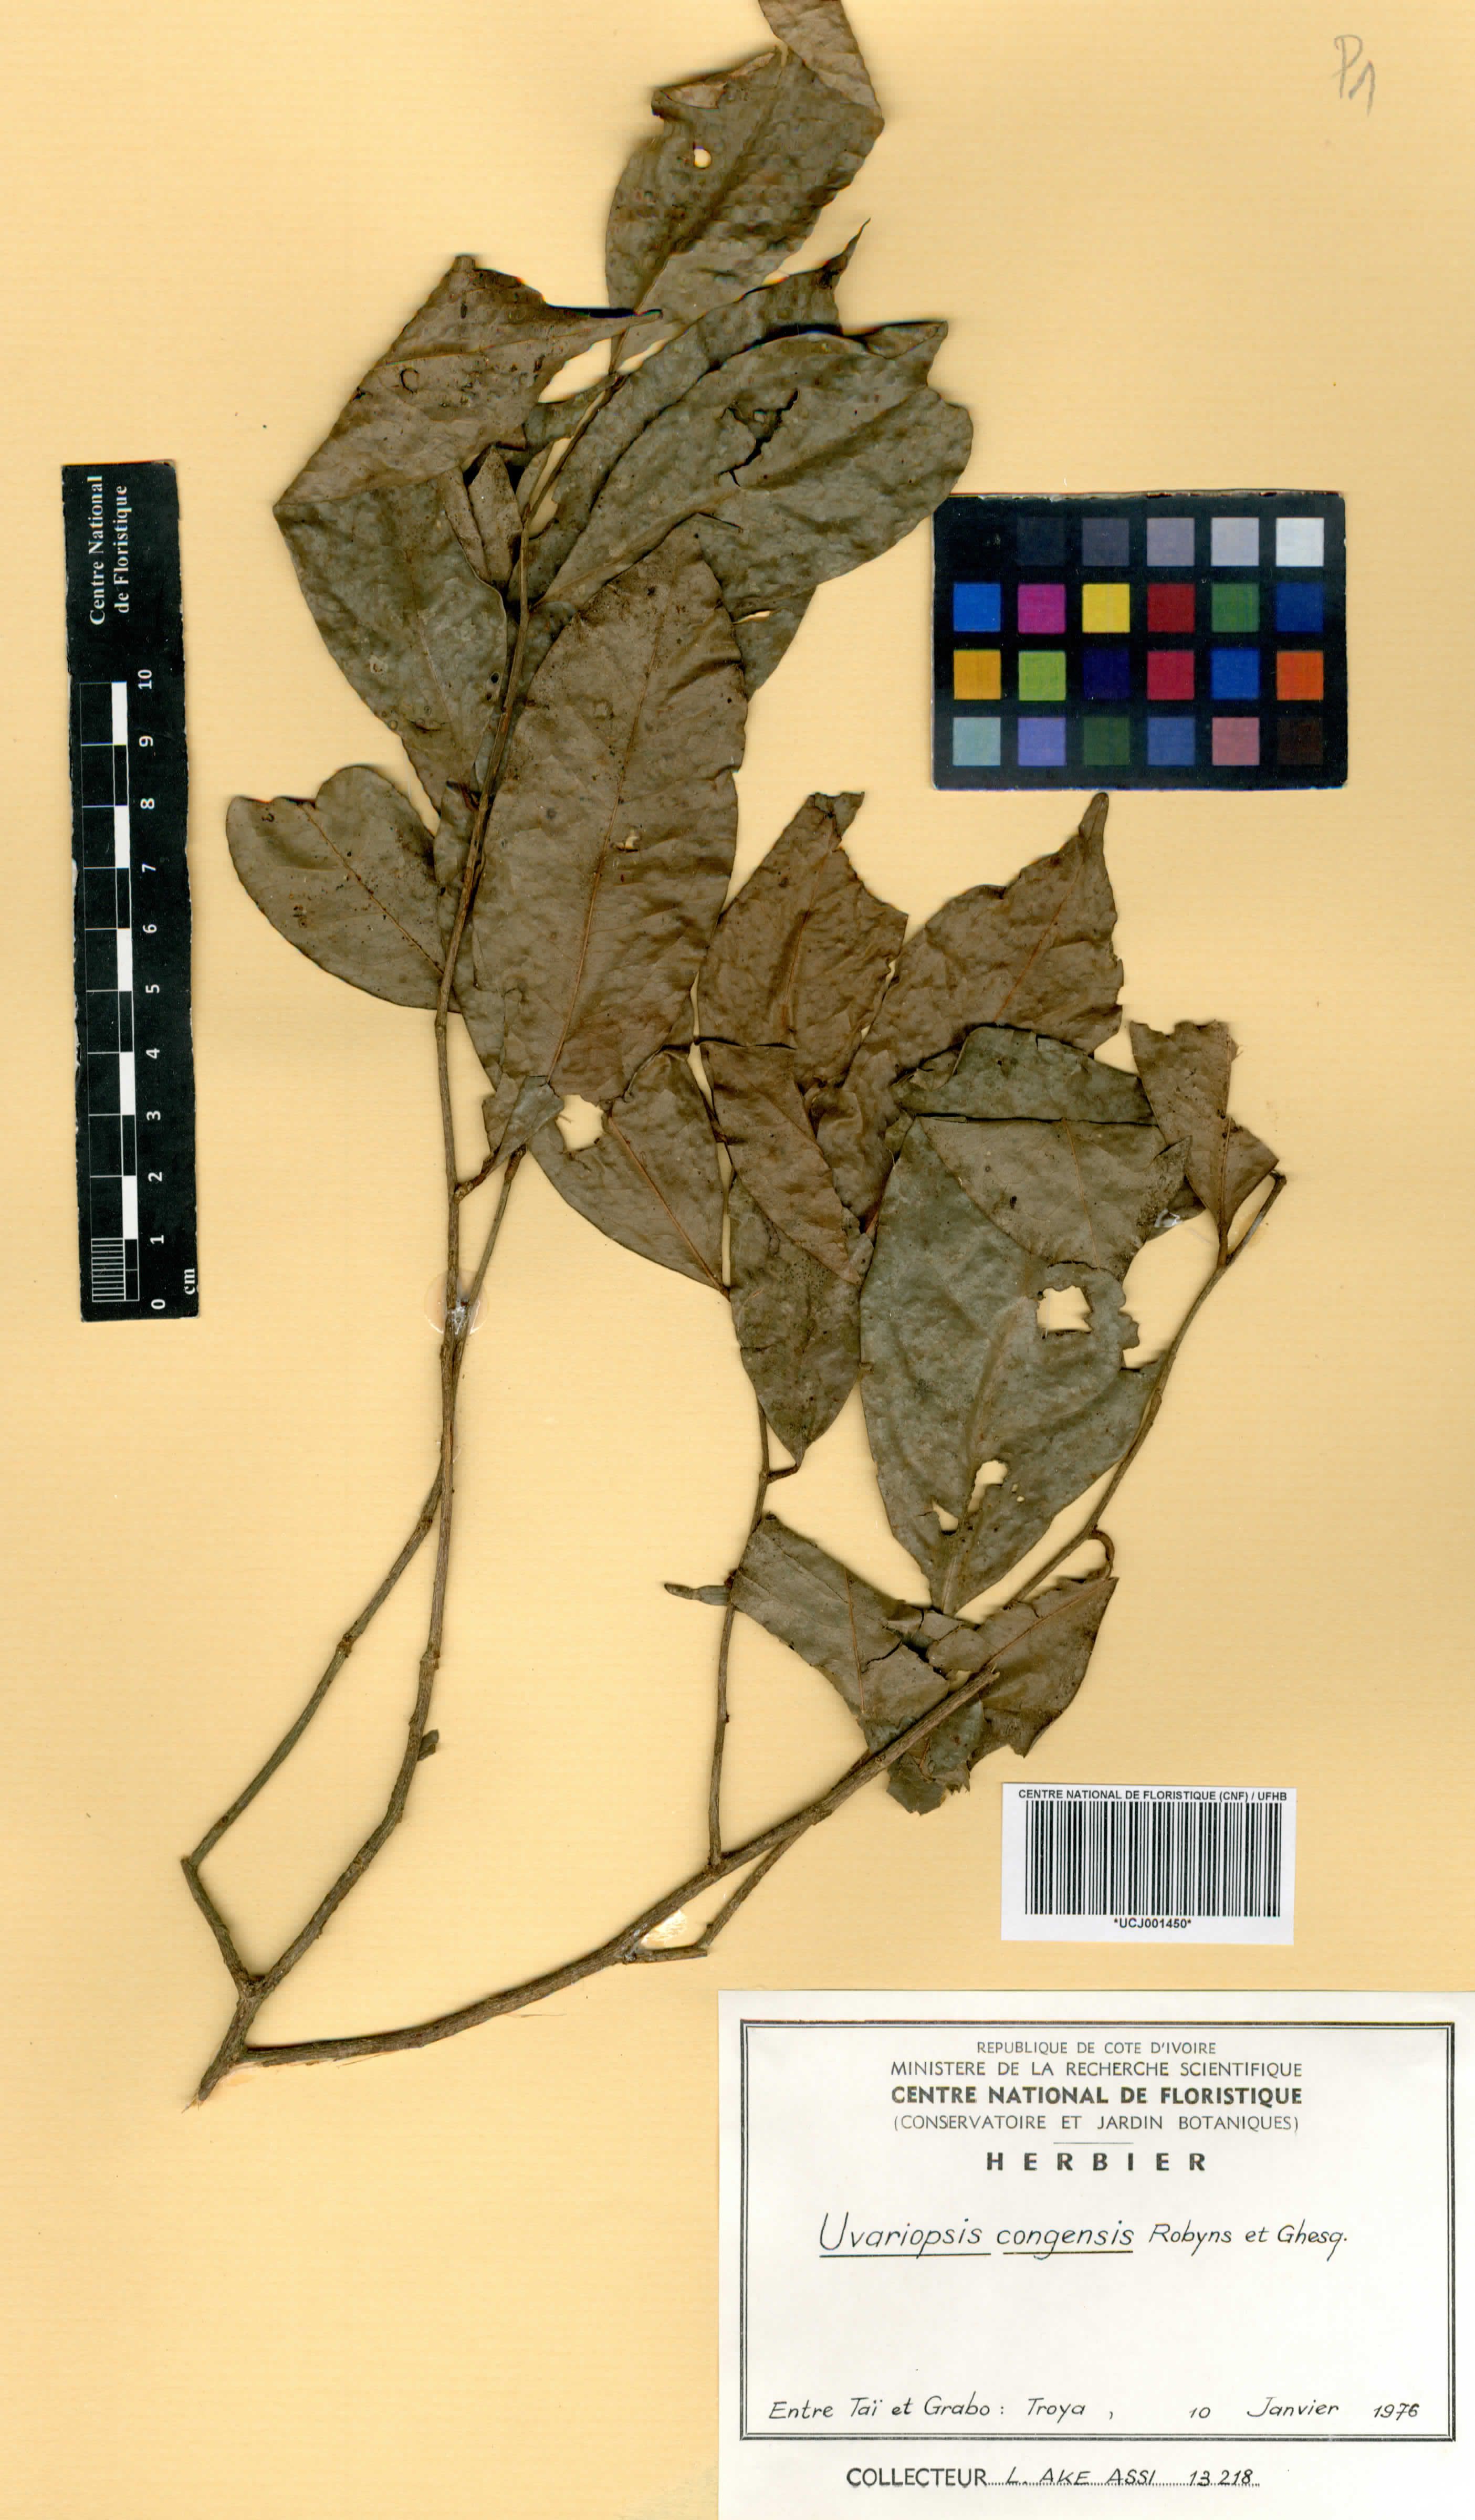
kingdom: Plantae
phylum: Tracheophyta
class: Magnoliopsida
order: Magnoliales
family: Annonaceae
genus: Uvariopsis
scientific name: Uvariopsis congensis
